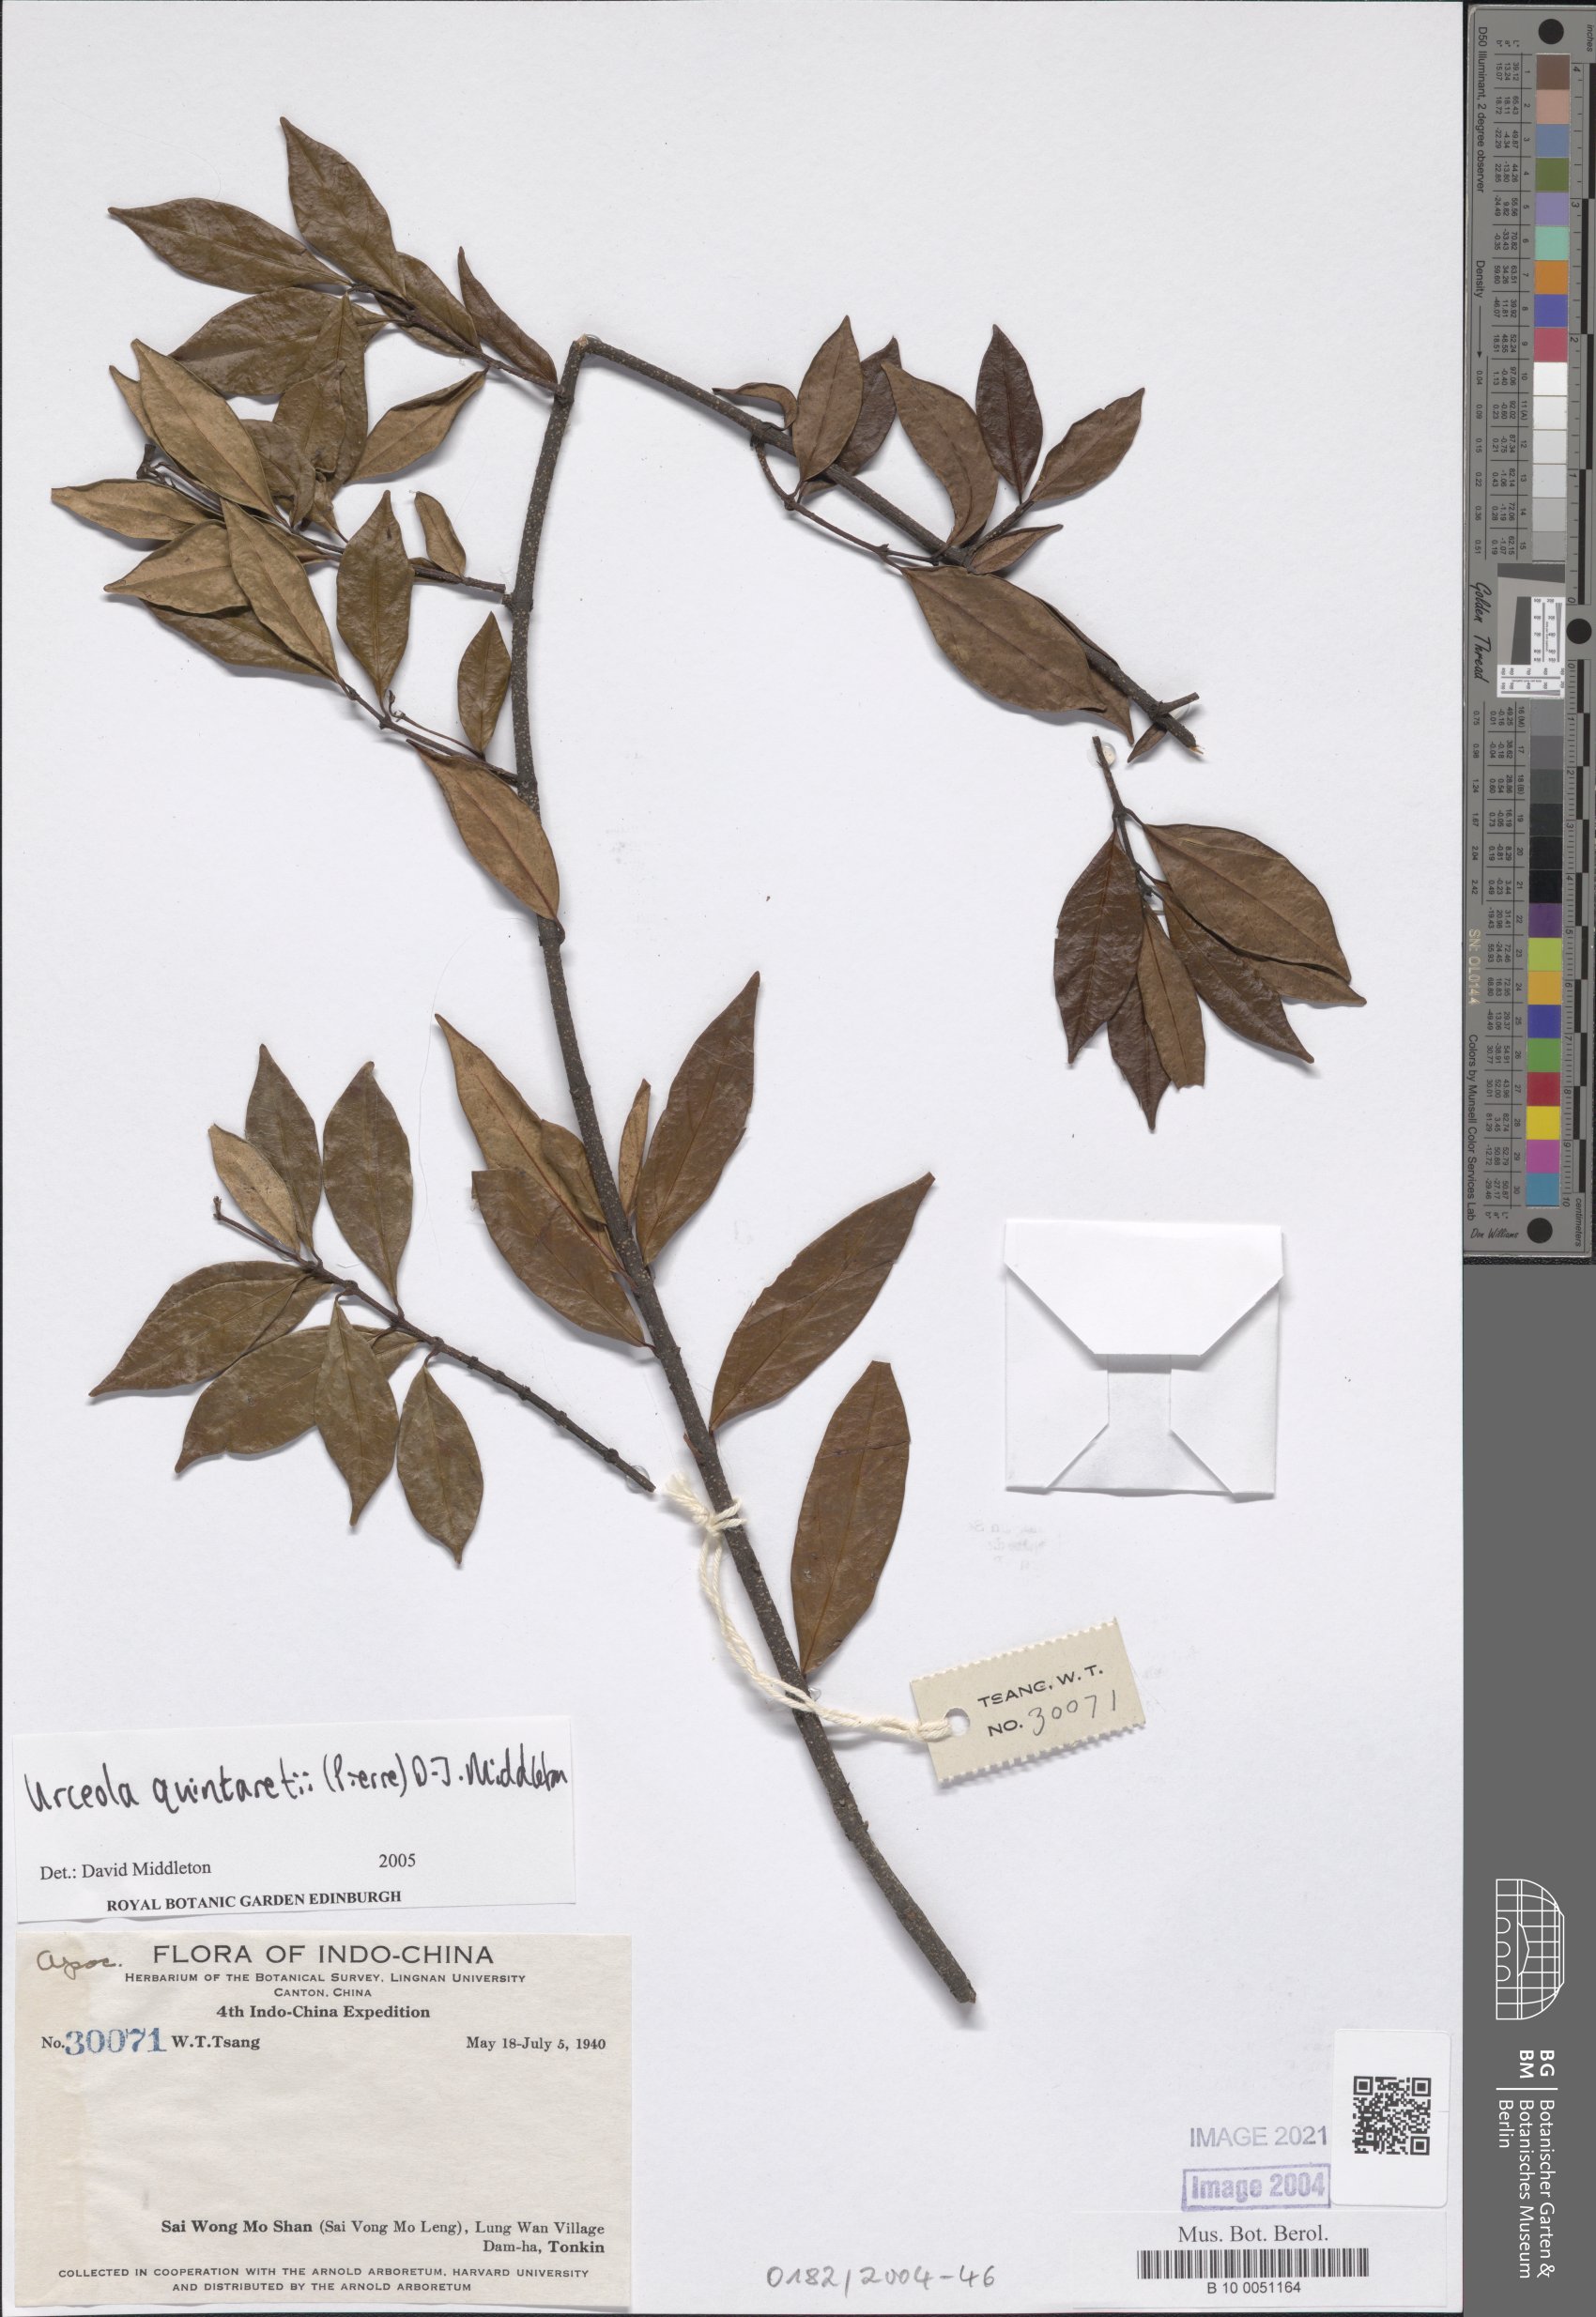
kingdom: Plantae
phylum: Tracheophyta
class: Magnoliopsida
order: Gentianales
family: Apocynaceae
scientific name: Apocynaceae
